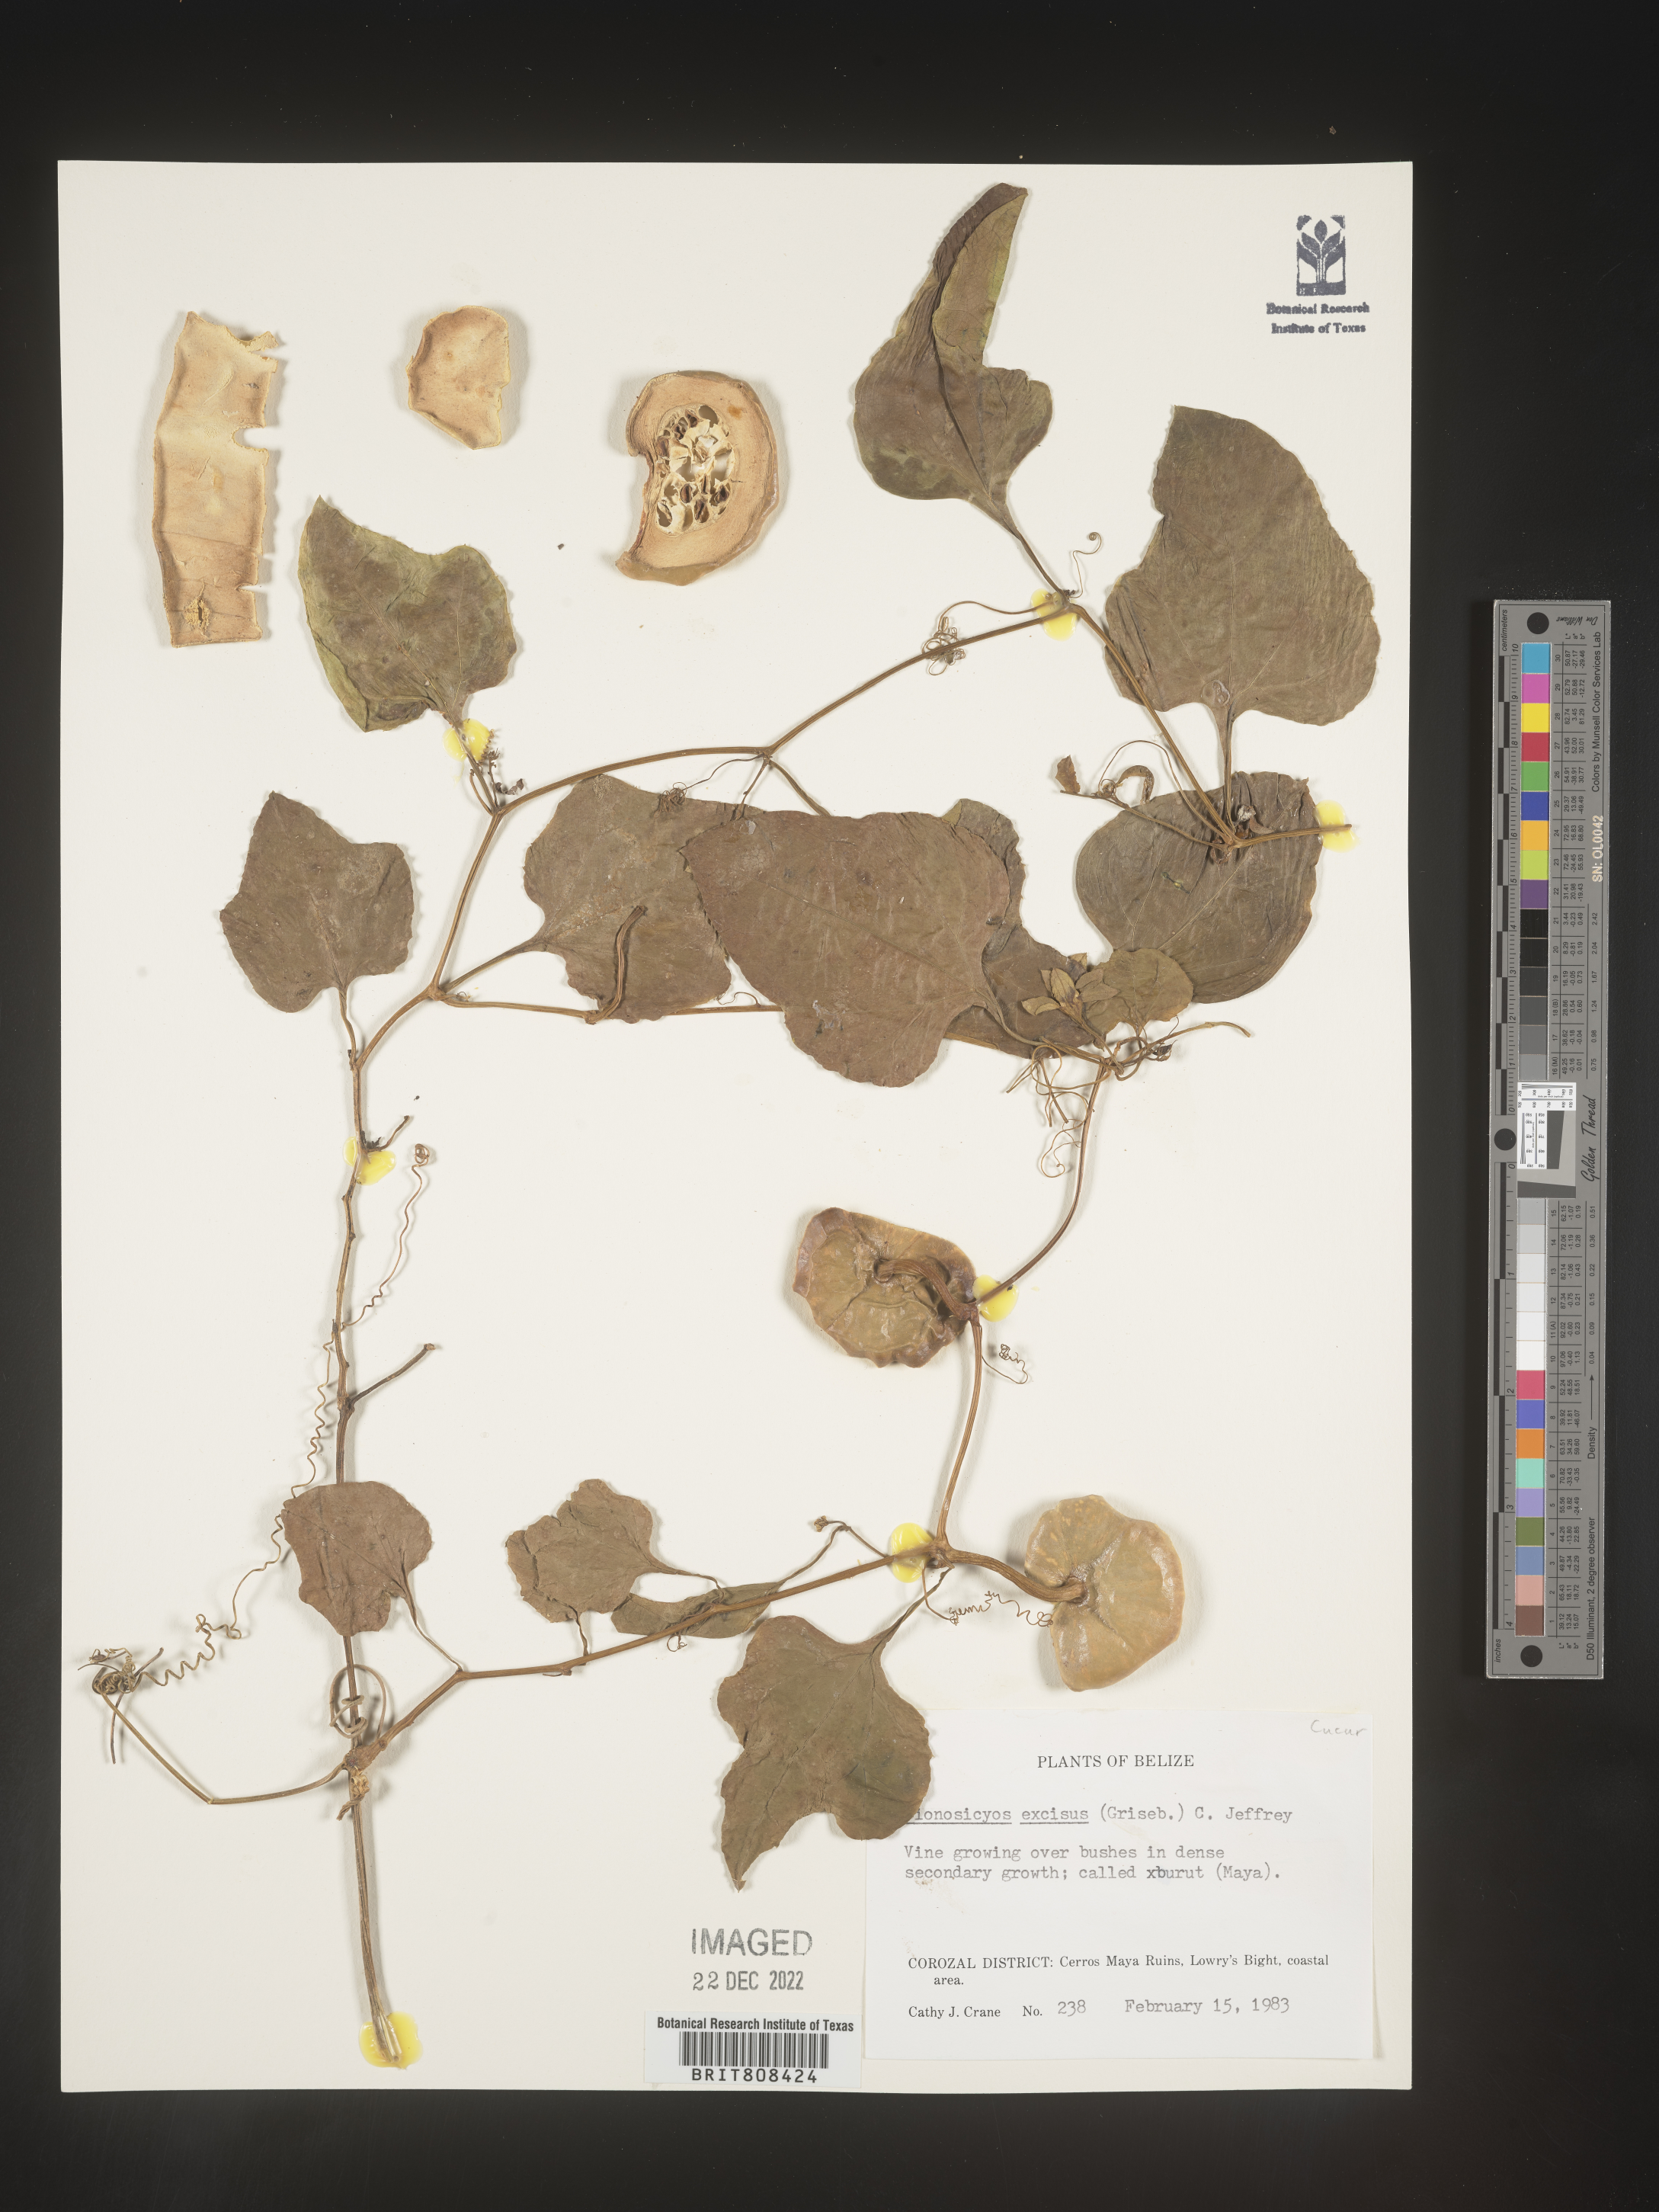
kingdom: Plantae
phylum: Tracheophyta
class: Magnoliopsida
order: Cucurbitales
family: Cucurbitaceae
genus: Cionosicys
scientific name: Cionosicys
